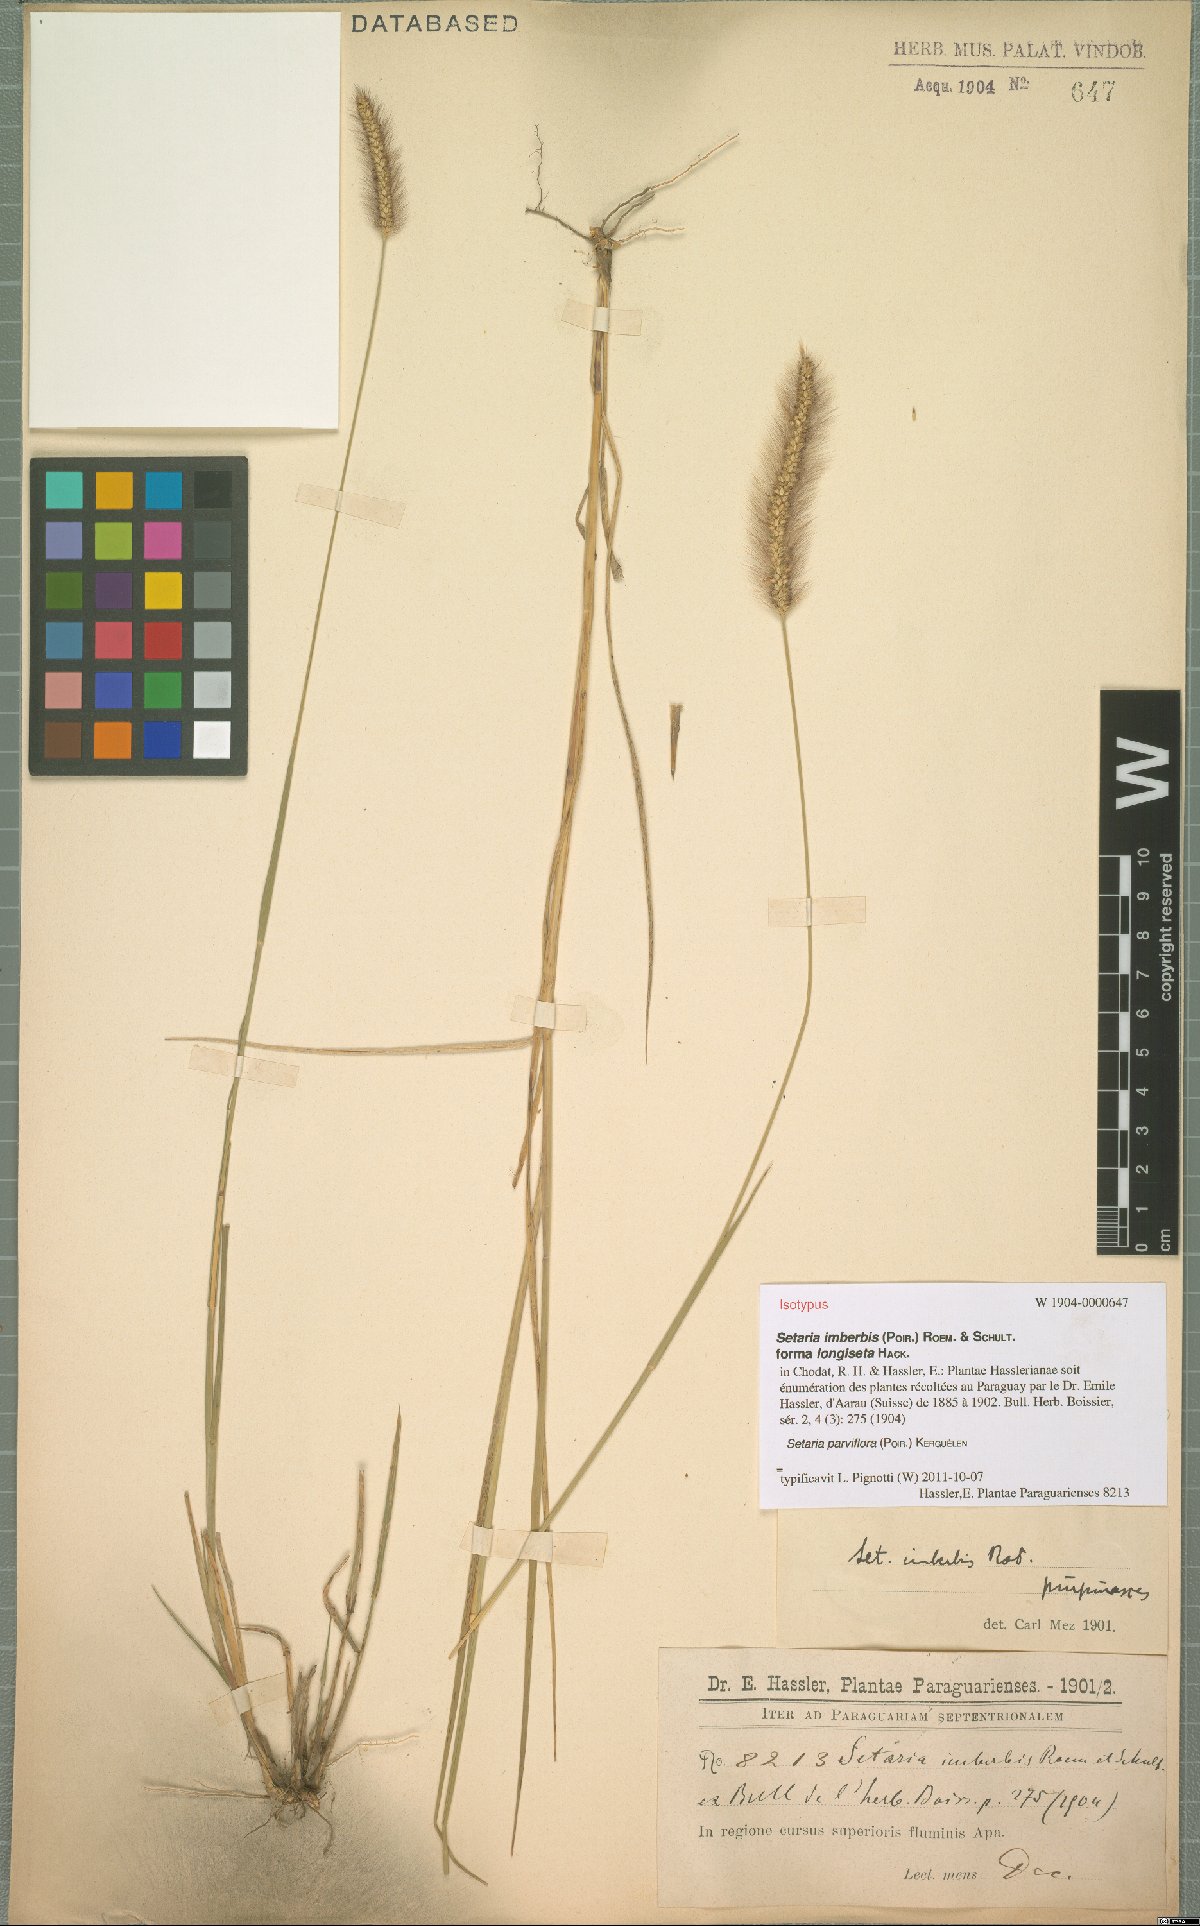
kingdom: Plantae
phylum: Tracheophyta
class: Liliopsida
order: Poales
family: Poaceae
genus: Setaria
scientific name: Setaria parviflora
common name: Knotroot bristle-grass
